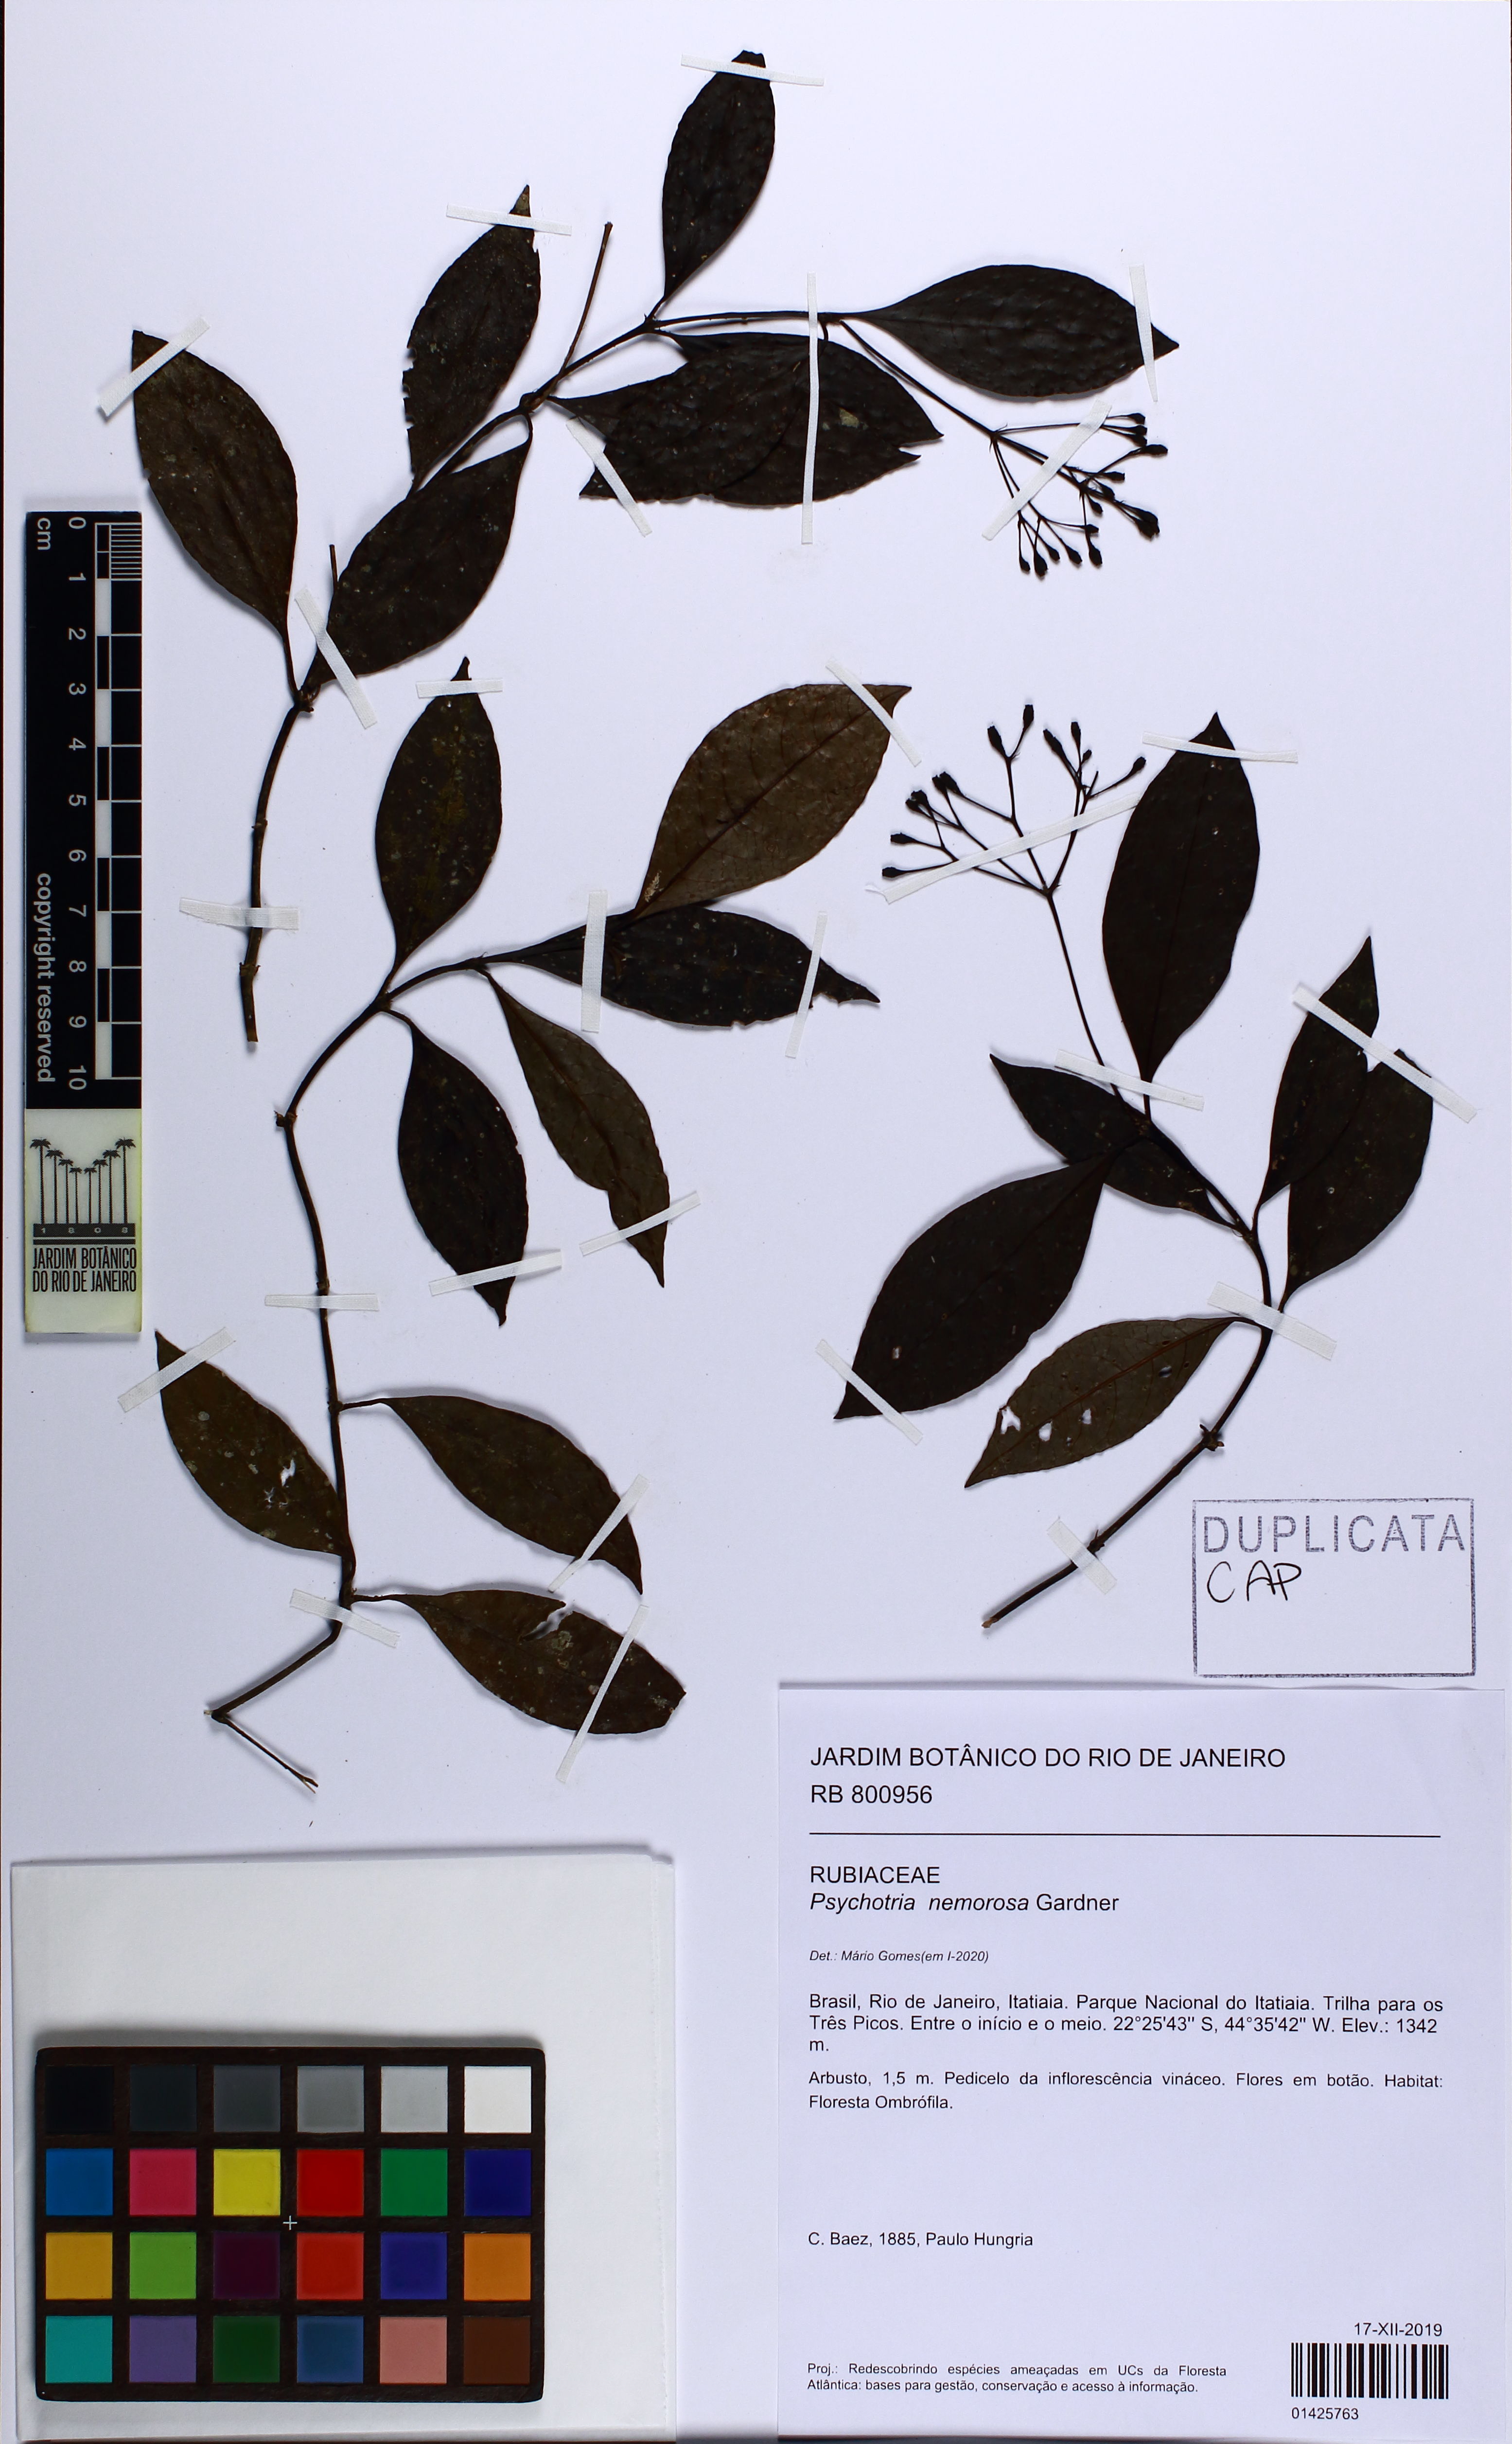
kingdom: Plantae
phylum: Tracheophyta
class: Magnoliopsida
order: Gentianales
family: Rubiaceae
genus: Psychotria
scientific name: Psychotria nemorosa
